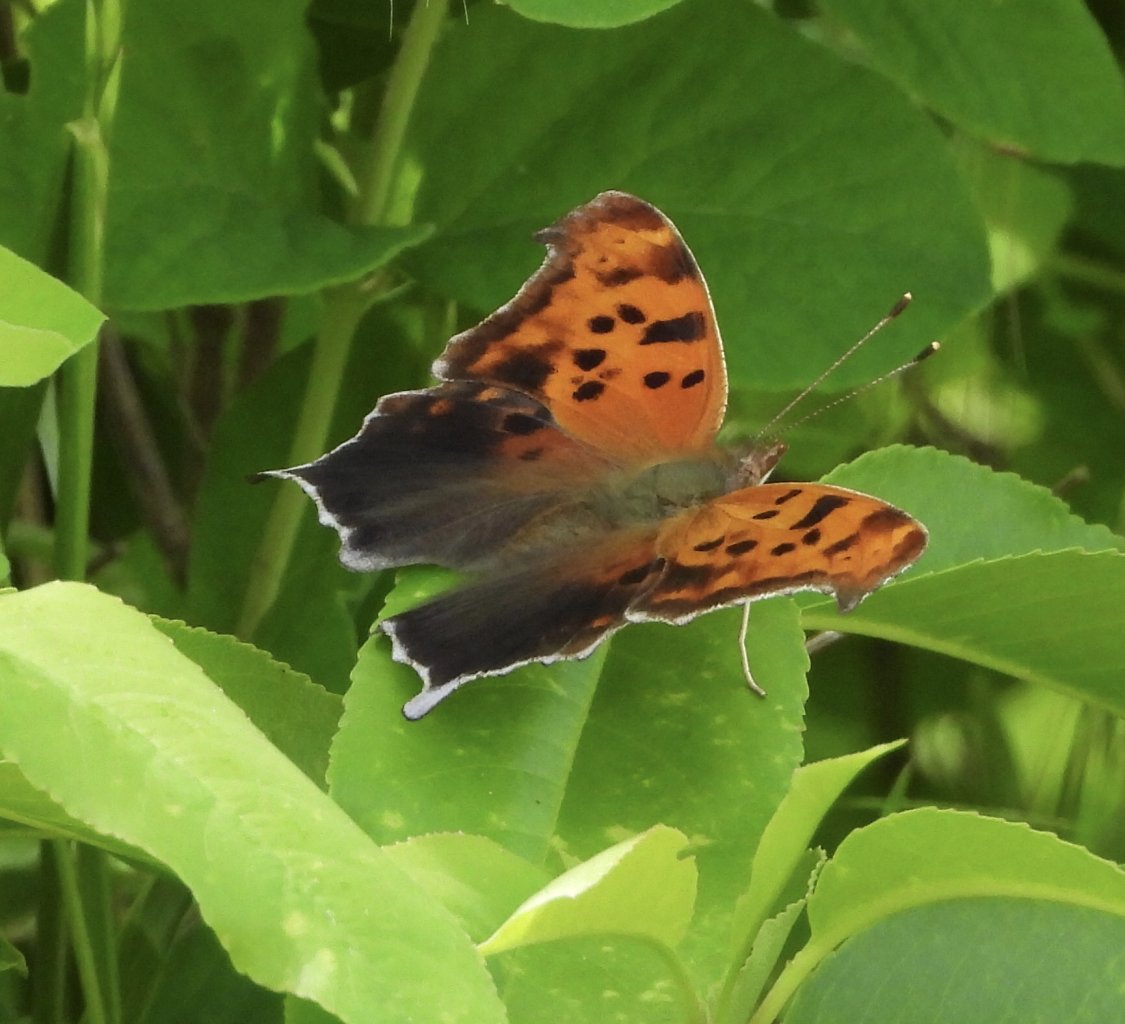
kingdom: Animalia
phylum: Arthropoda
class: Insecta
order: Lepidoptera
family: Nymphalidae
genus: Polygonia
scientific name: Polygonia interrogationis
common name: Question Mark
